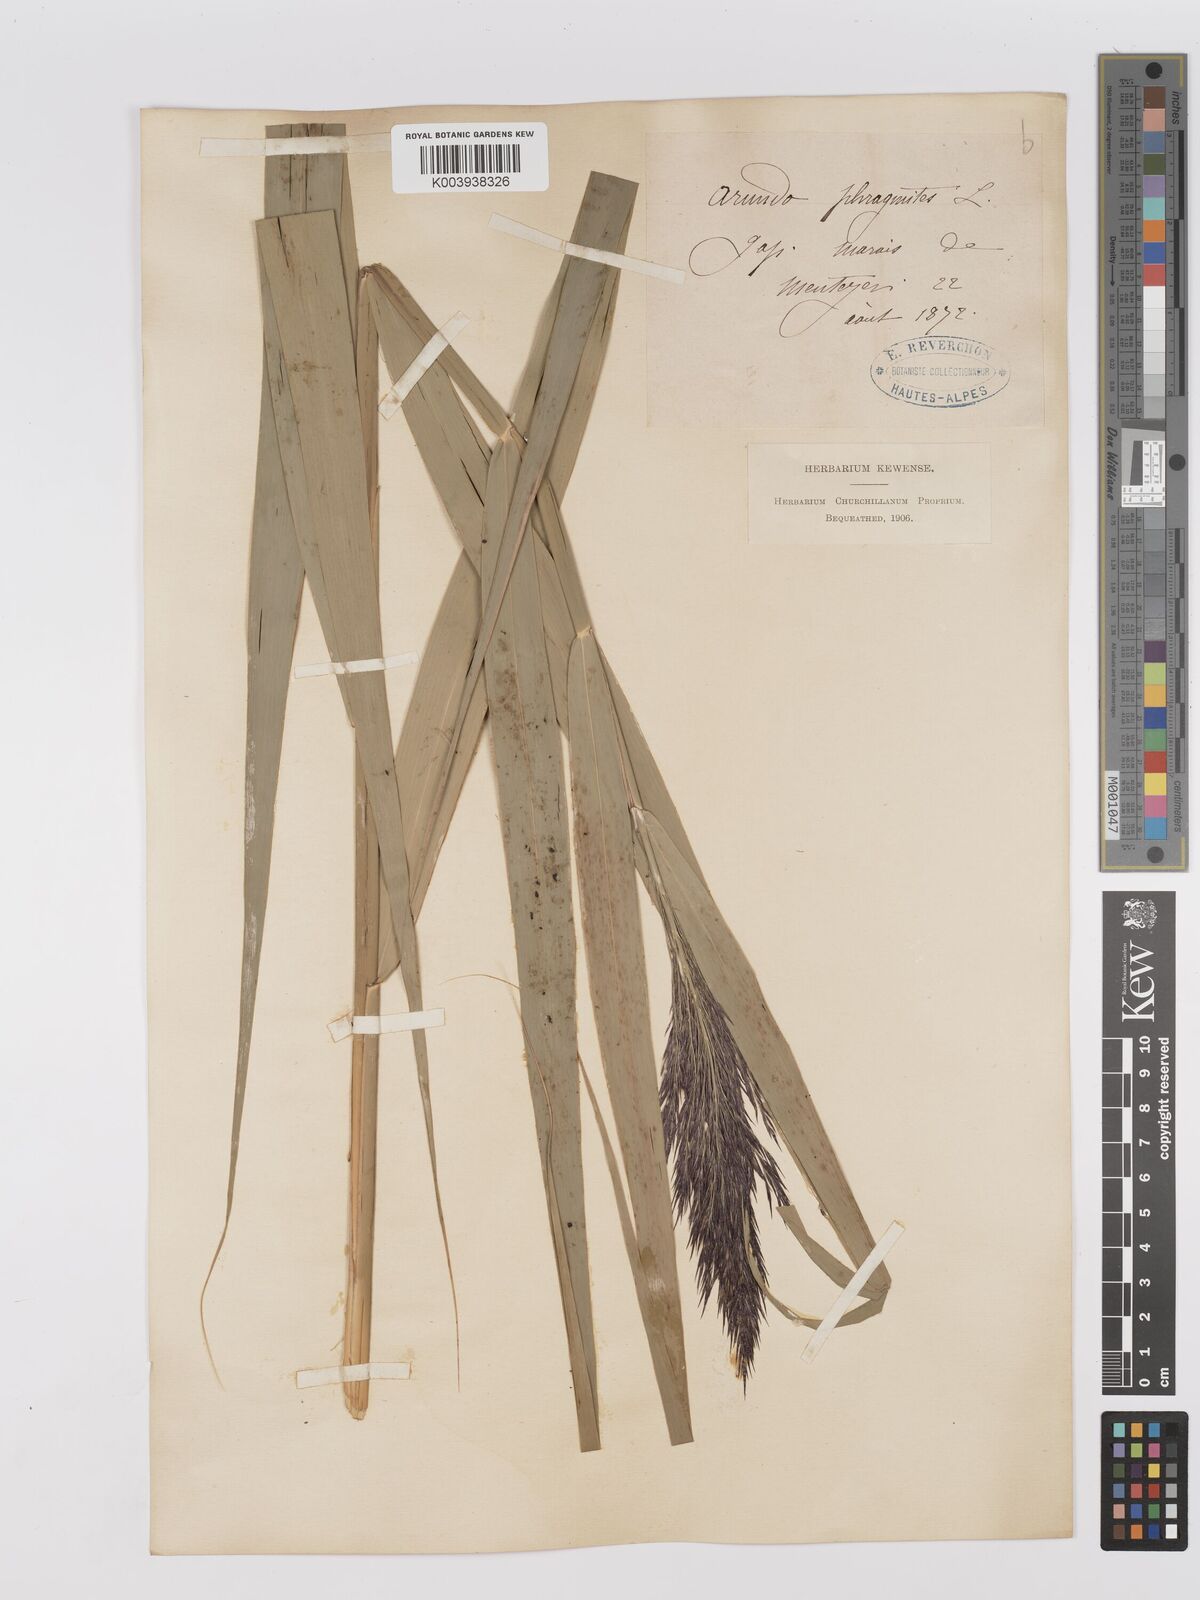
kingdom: Plantae
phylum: Tracheophyta
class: Liliopsida
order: Poales
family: Poaceae
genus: Phragmites
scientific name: Phragmites australis
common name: Common reed
